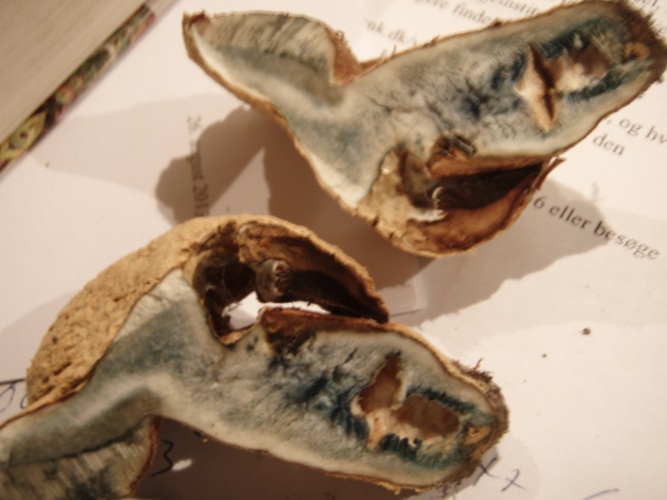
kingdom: Fungi
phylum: Basidiomycota
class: Agaricomycetes
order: Boletales
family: Gyroporaceae
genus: Gyroporus
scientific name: Gyroporus cyanescens
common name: blånende kammerrørhat
